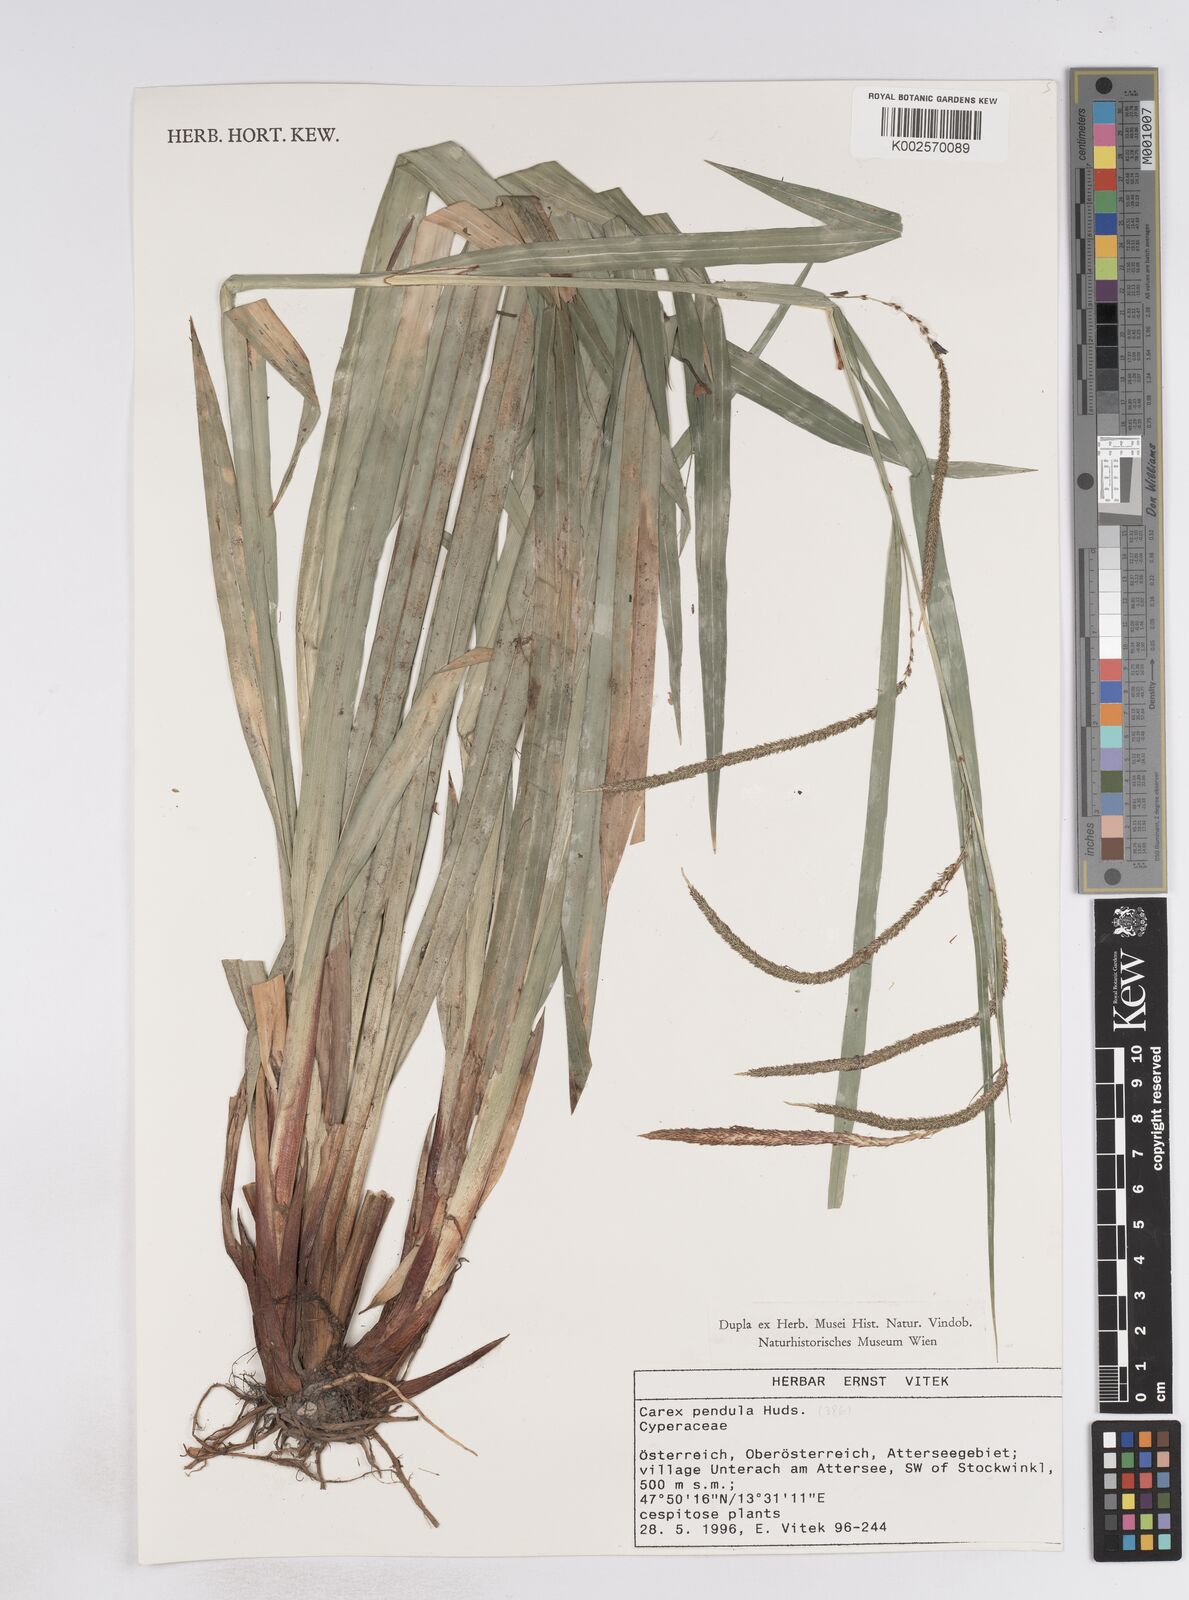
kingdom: Plantae
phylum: Tracheophyta
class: Liliopsida
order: Poales
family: Cyperaceae
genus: Carex
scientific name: Carex pendula
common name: Pendulous sedge
